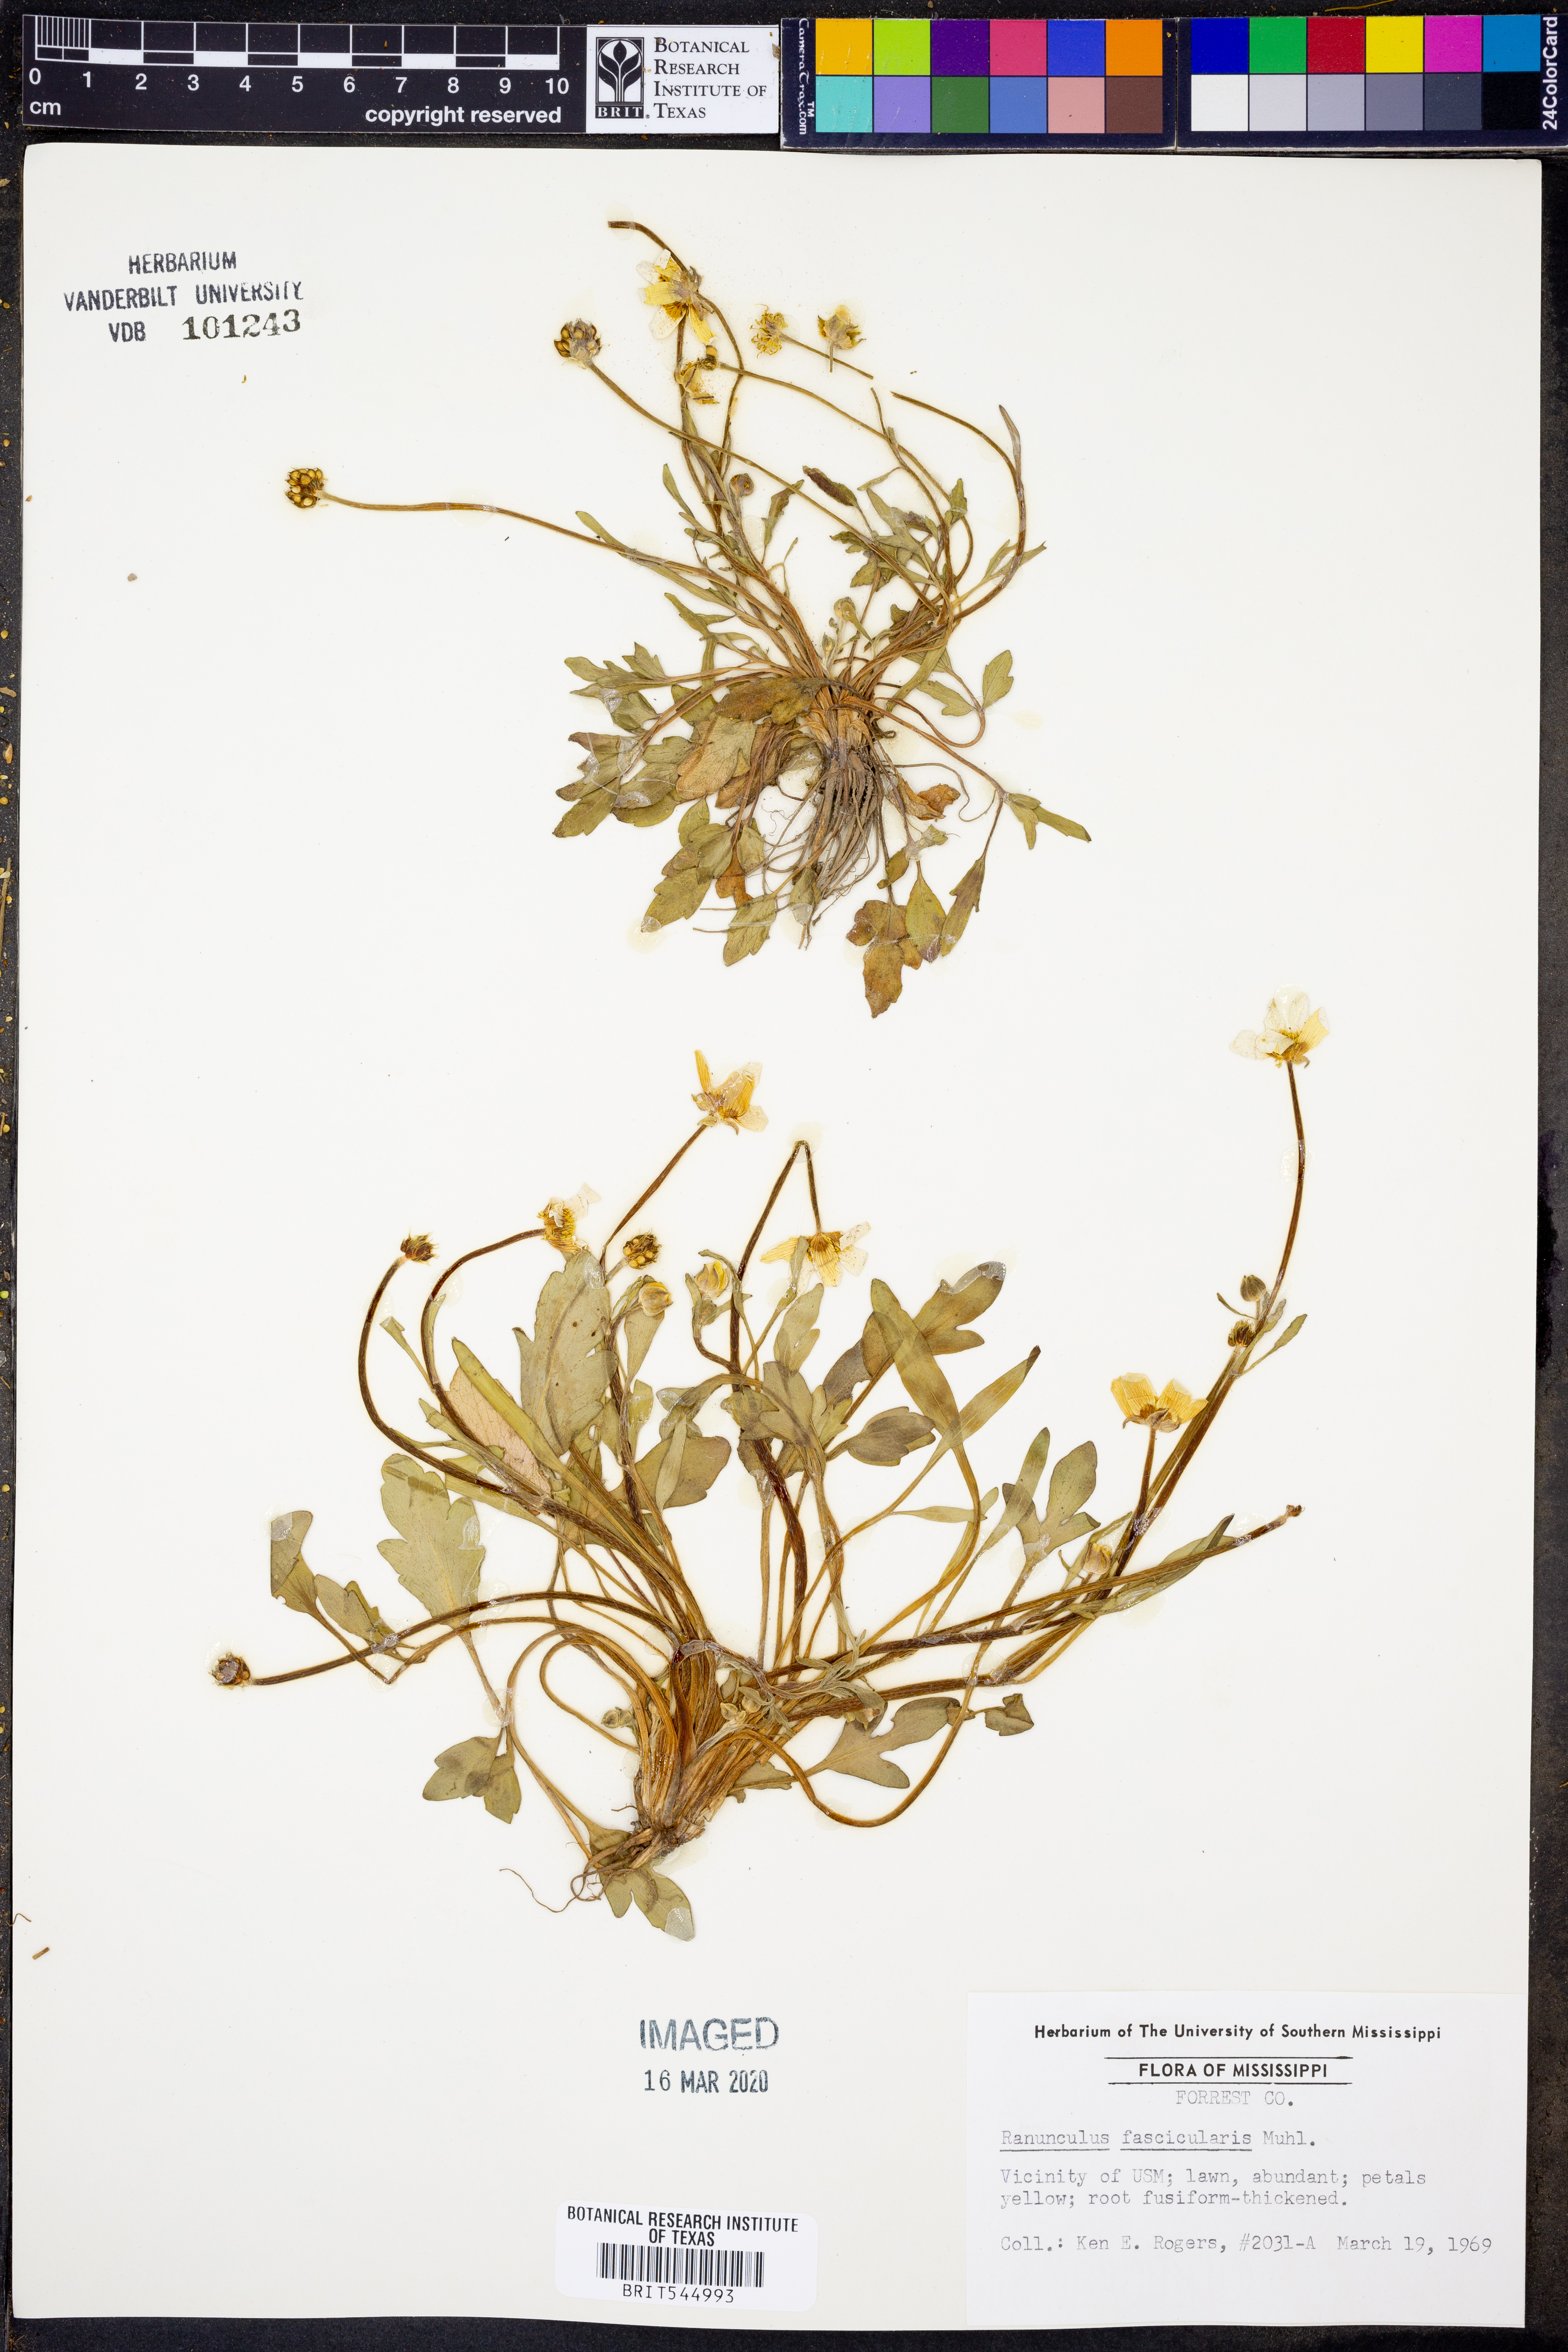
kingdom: Plantae
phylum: Tracheophyta
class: Magnoliopsida
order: Ranunculales
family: Ranunculaceae
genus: Ranunculus
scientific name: Ranunculus fascicularis
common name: Early buttercup
